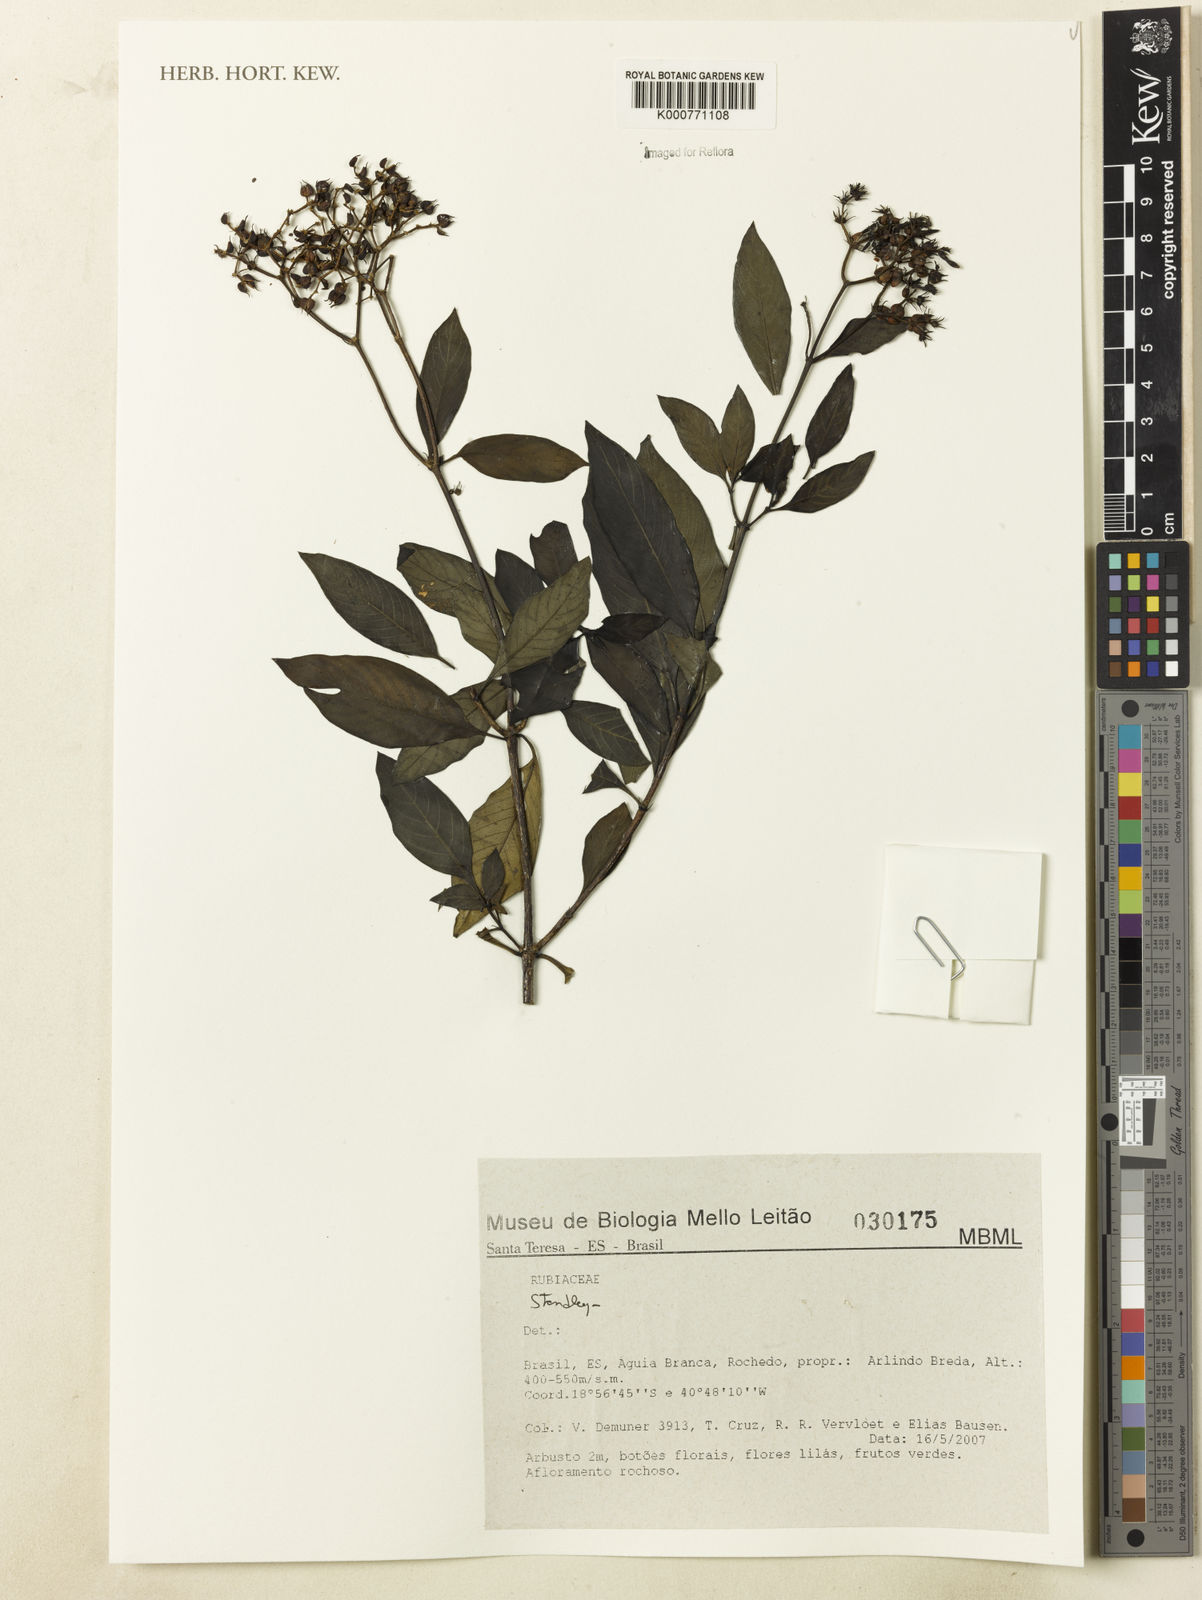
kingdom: Plantae
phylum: Tracheophyta
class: Magnoliopsida
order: Gentianales
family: Rubiaceae
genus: Standleya
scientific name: Standleya
